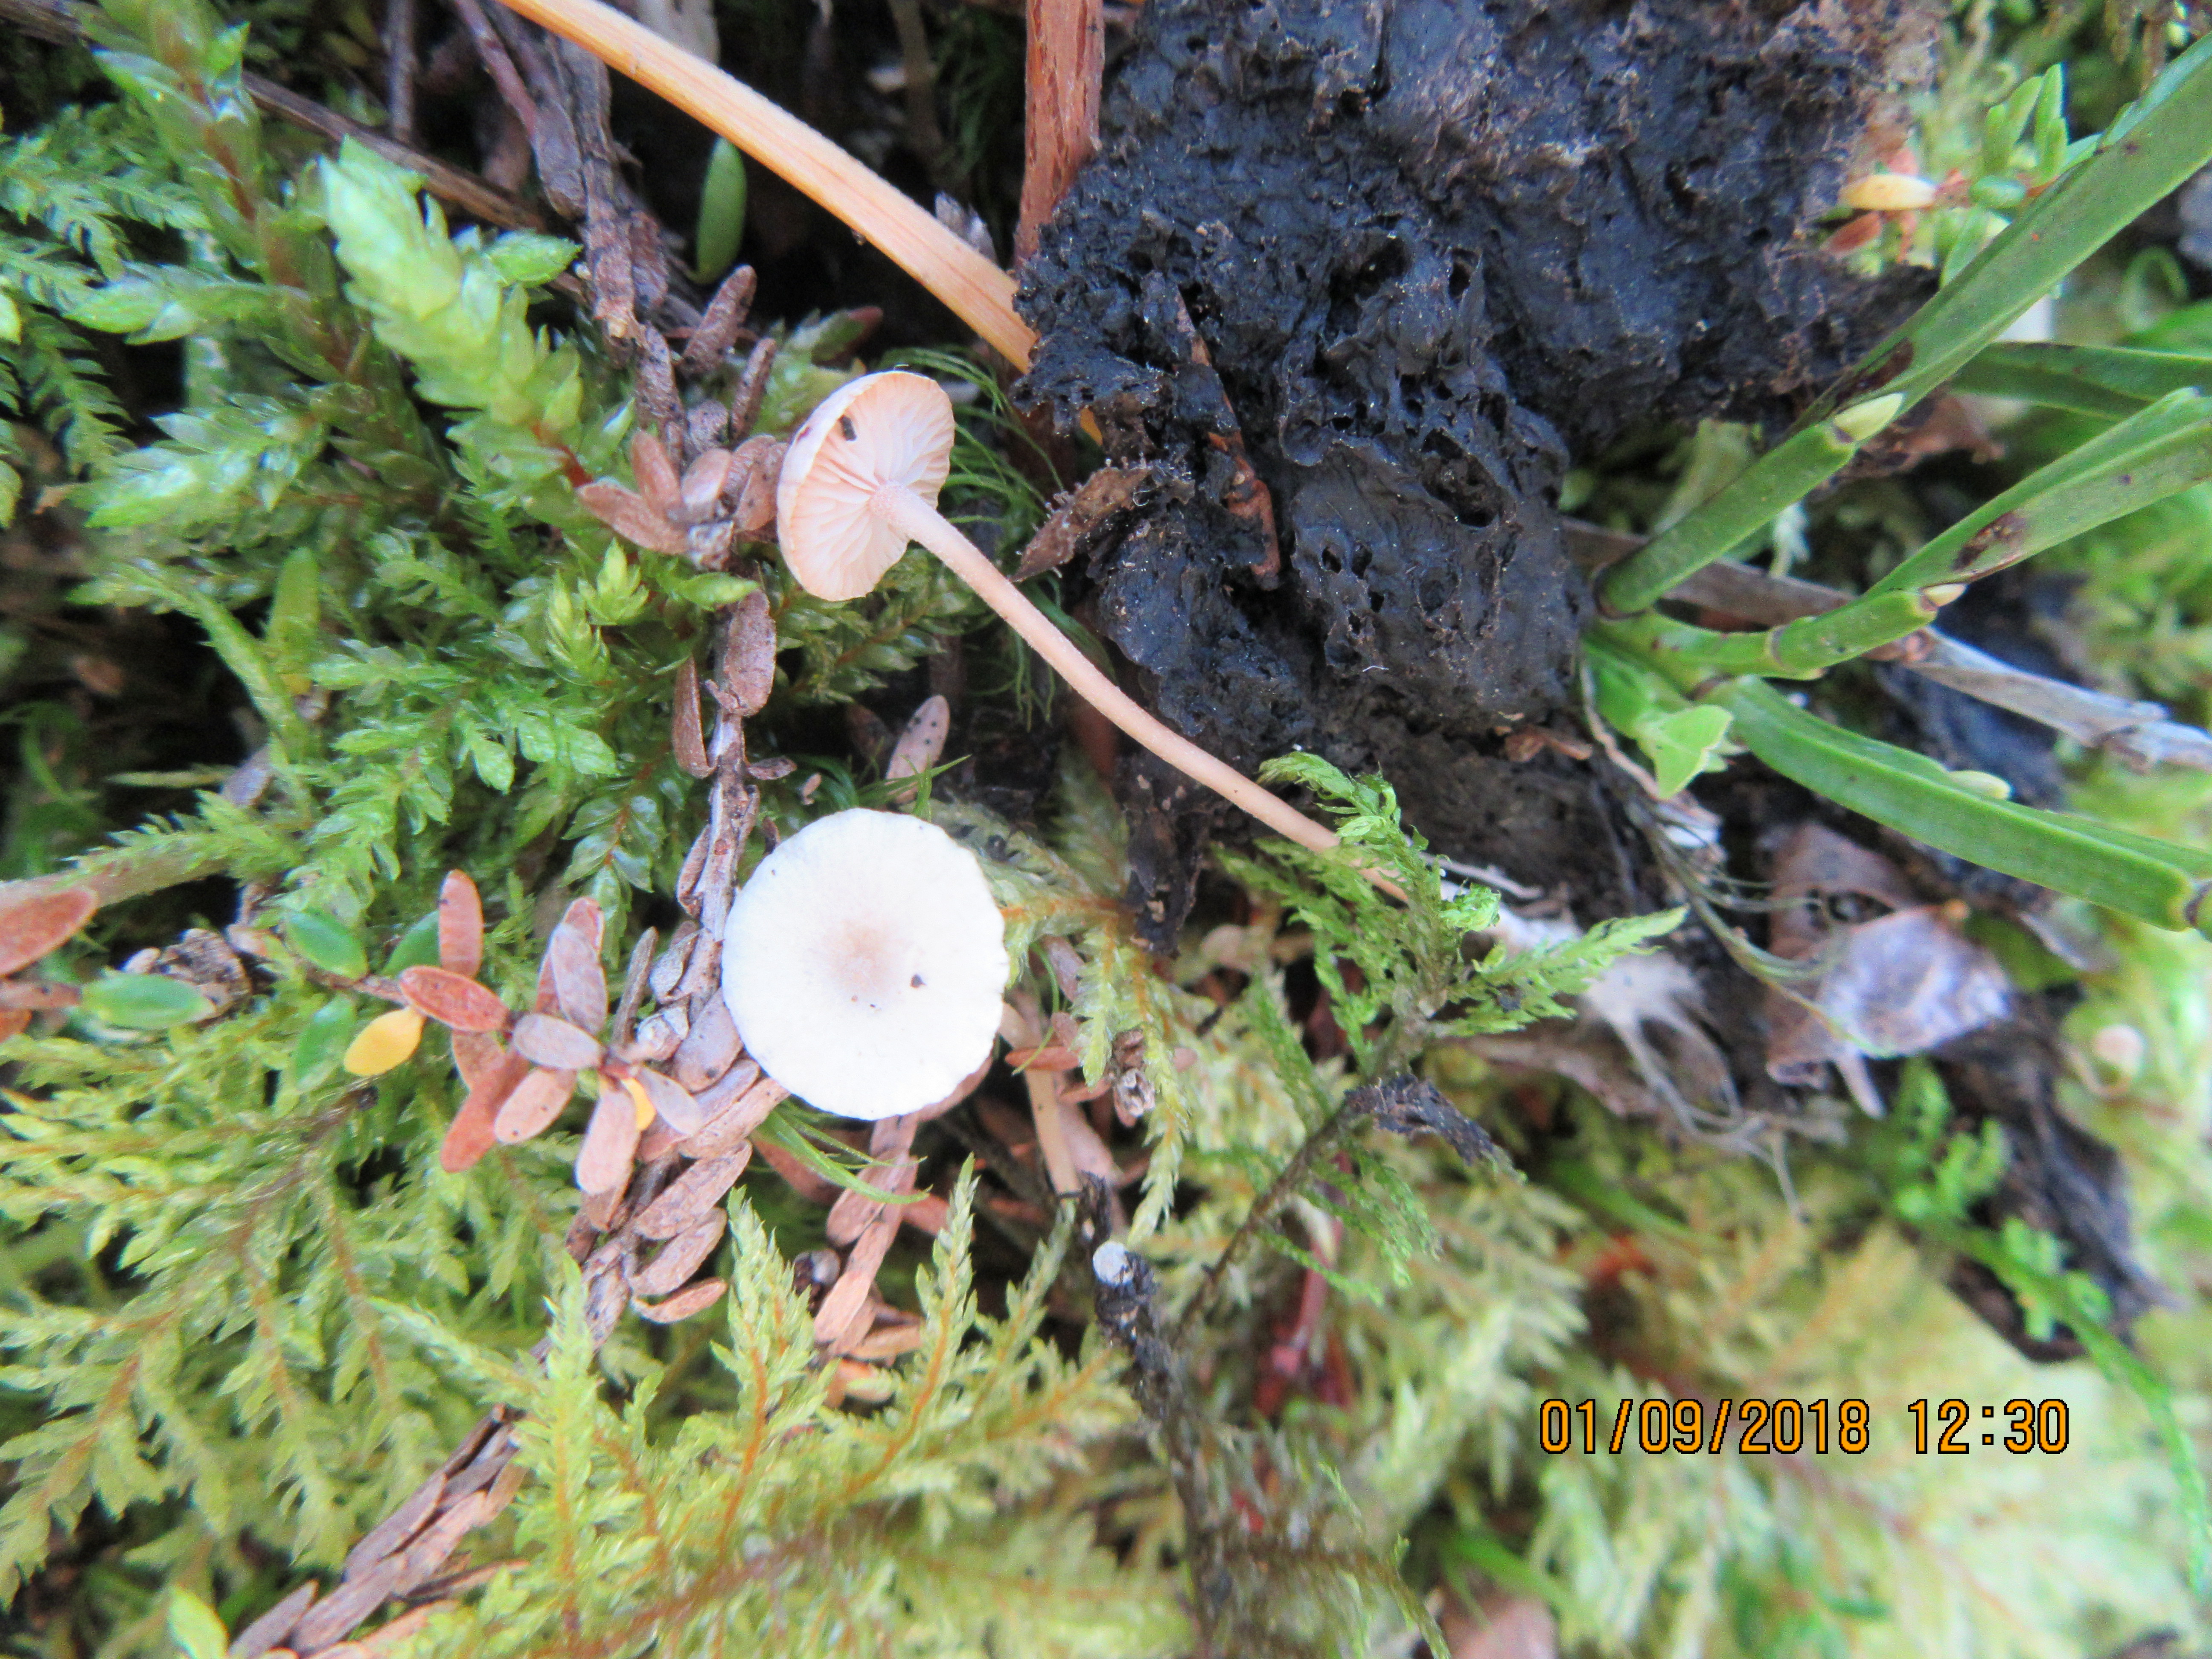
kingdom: Fungi
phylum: Basidiomycota
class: Agaricomycetes
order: Agaricales
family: Tricholomataceae
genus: Collybia
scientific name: Collybia cirrhata
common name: Piggyback shanklet
